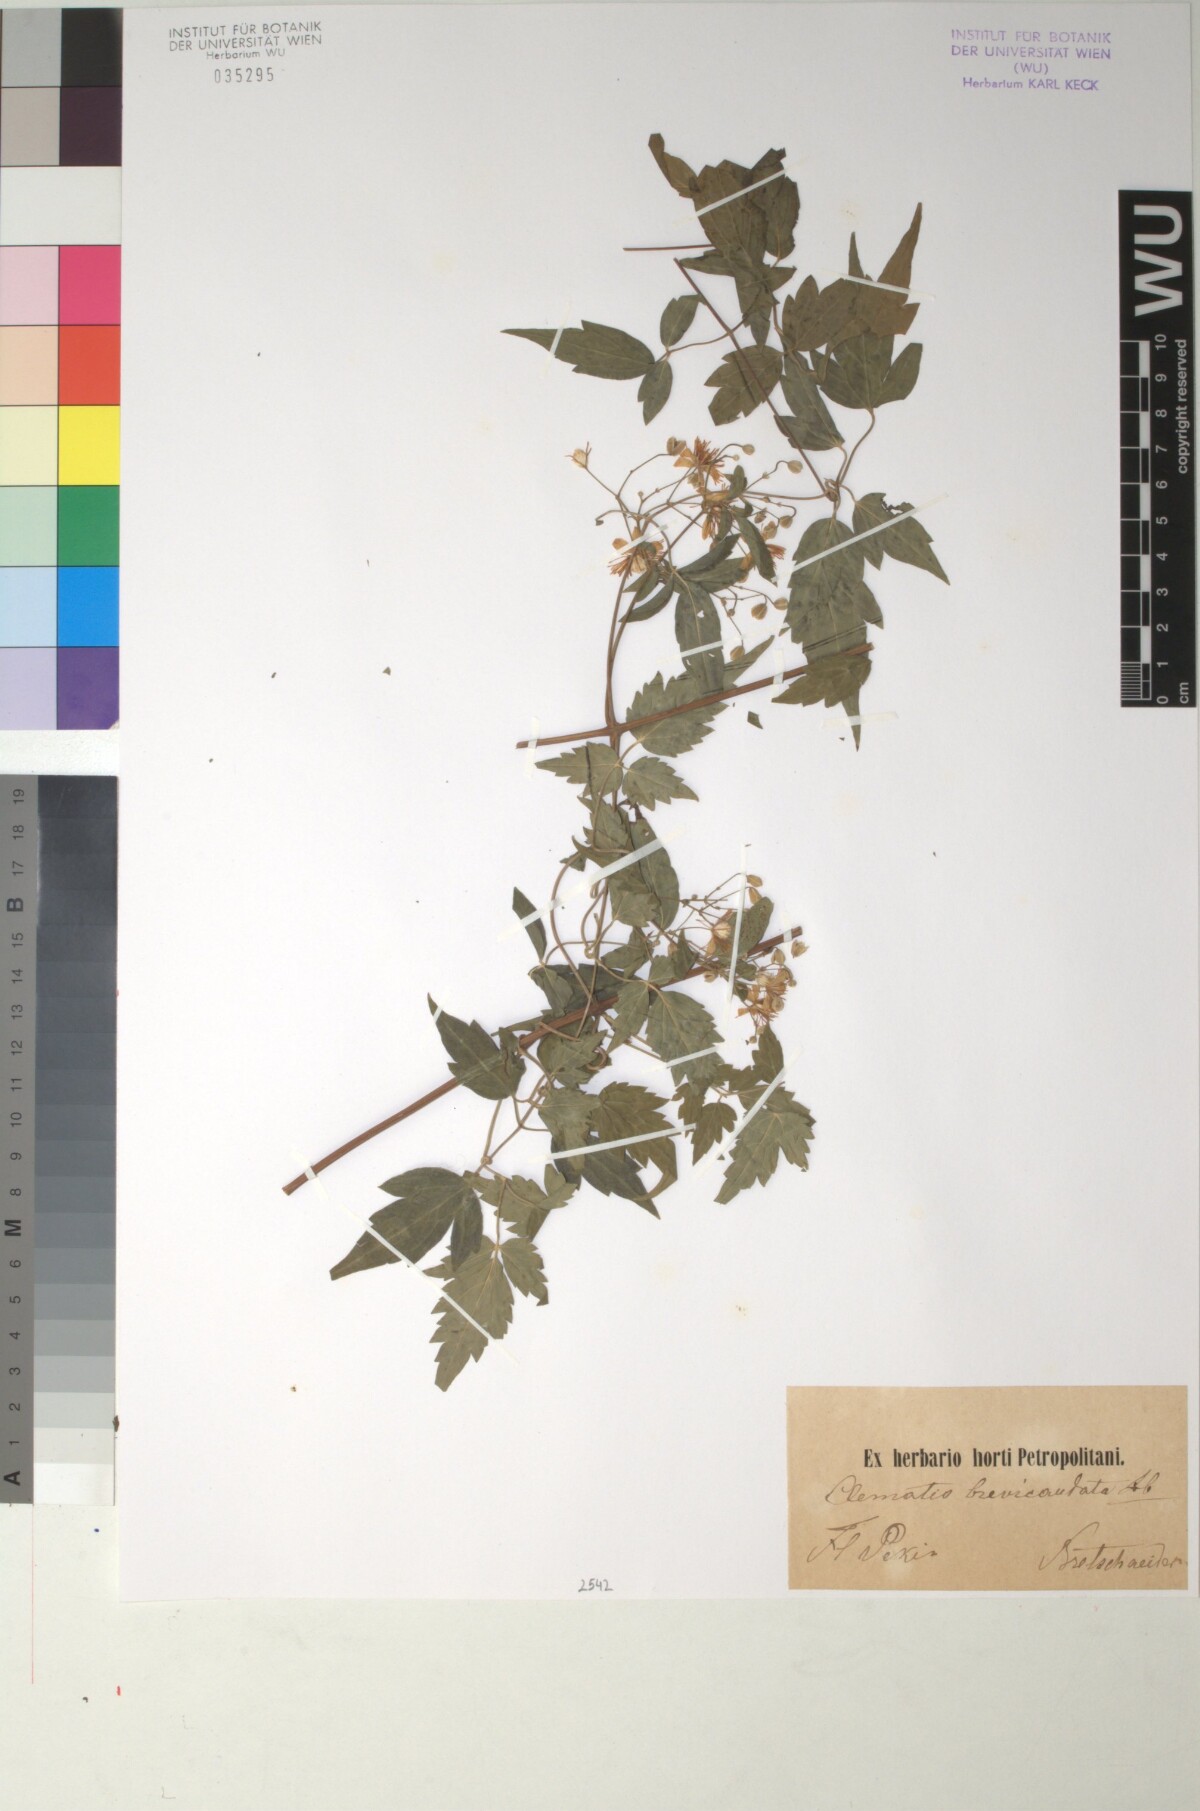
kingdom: Plantae
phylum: Tracheophyta
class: Magnoliopsida
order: Ranunculales
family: Ranunculaceae
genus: Clematis
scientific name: Clematis brevicaudata
